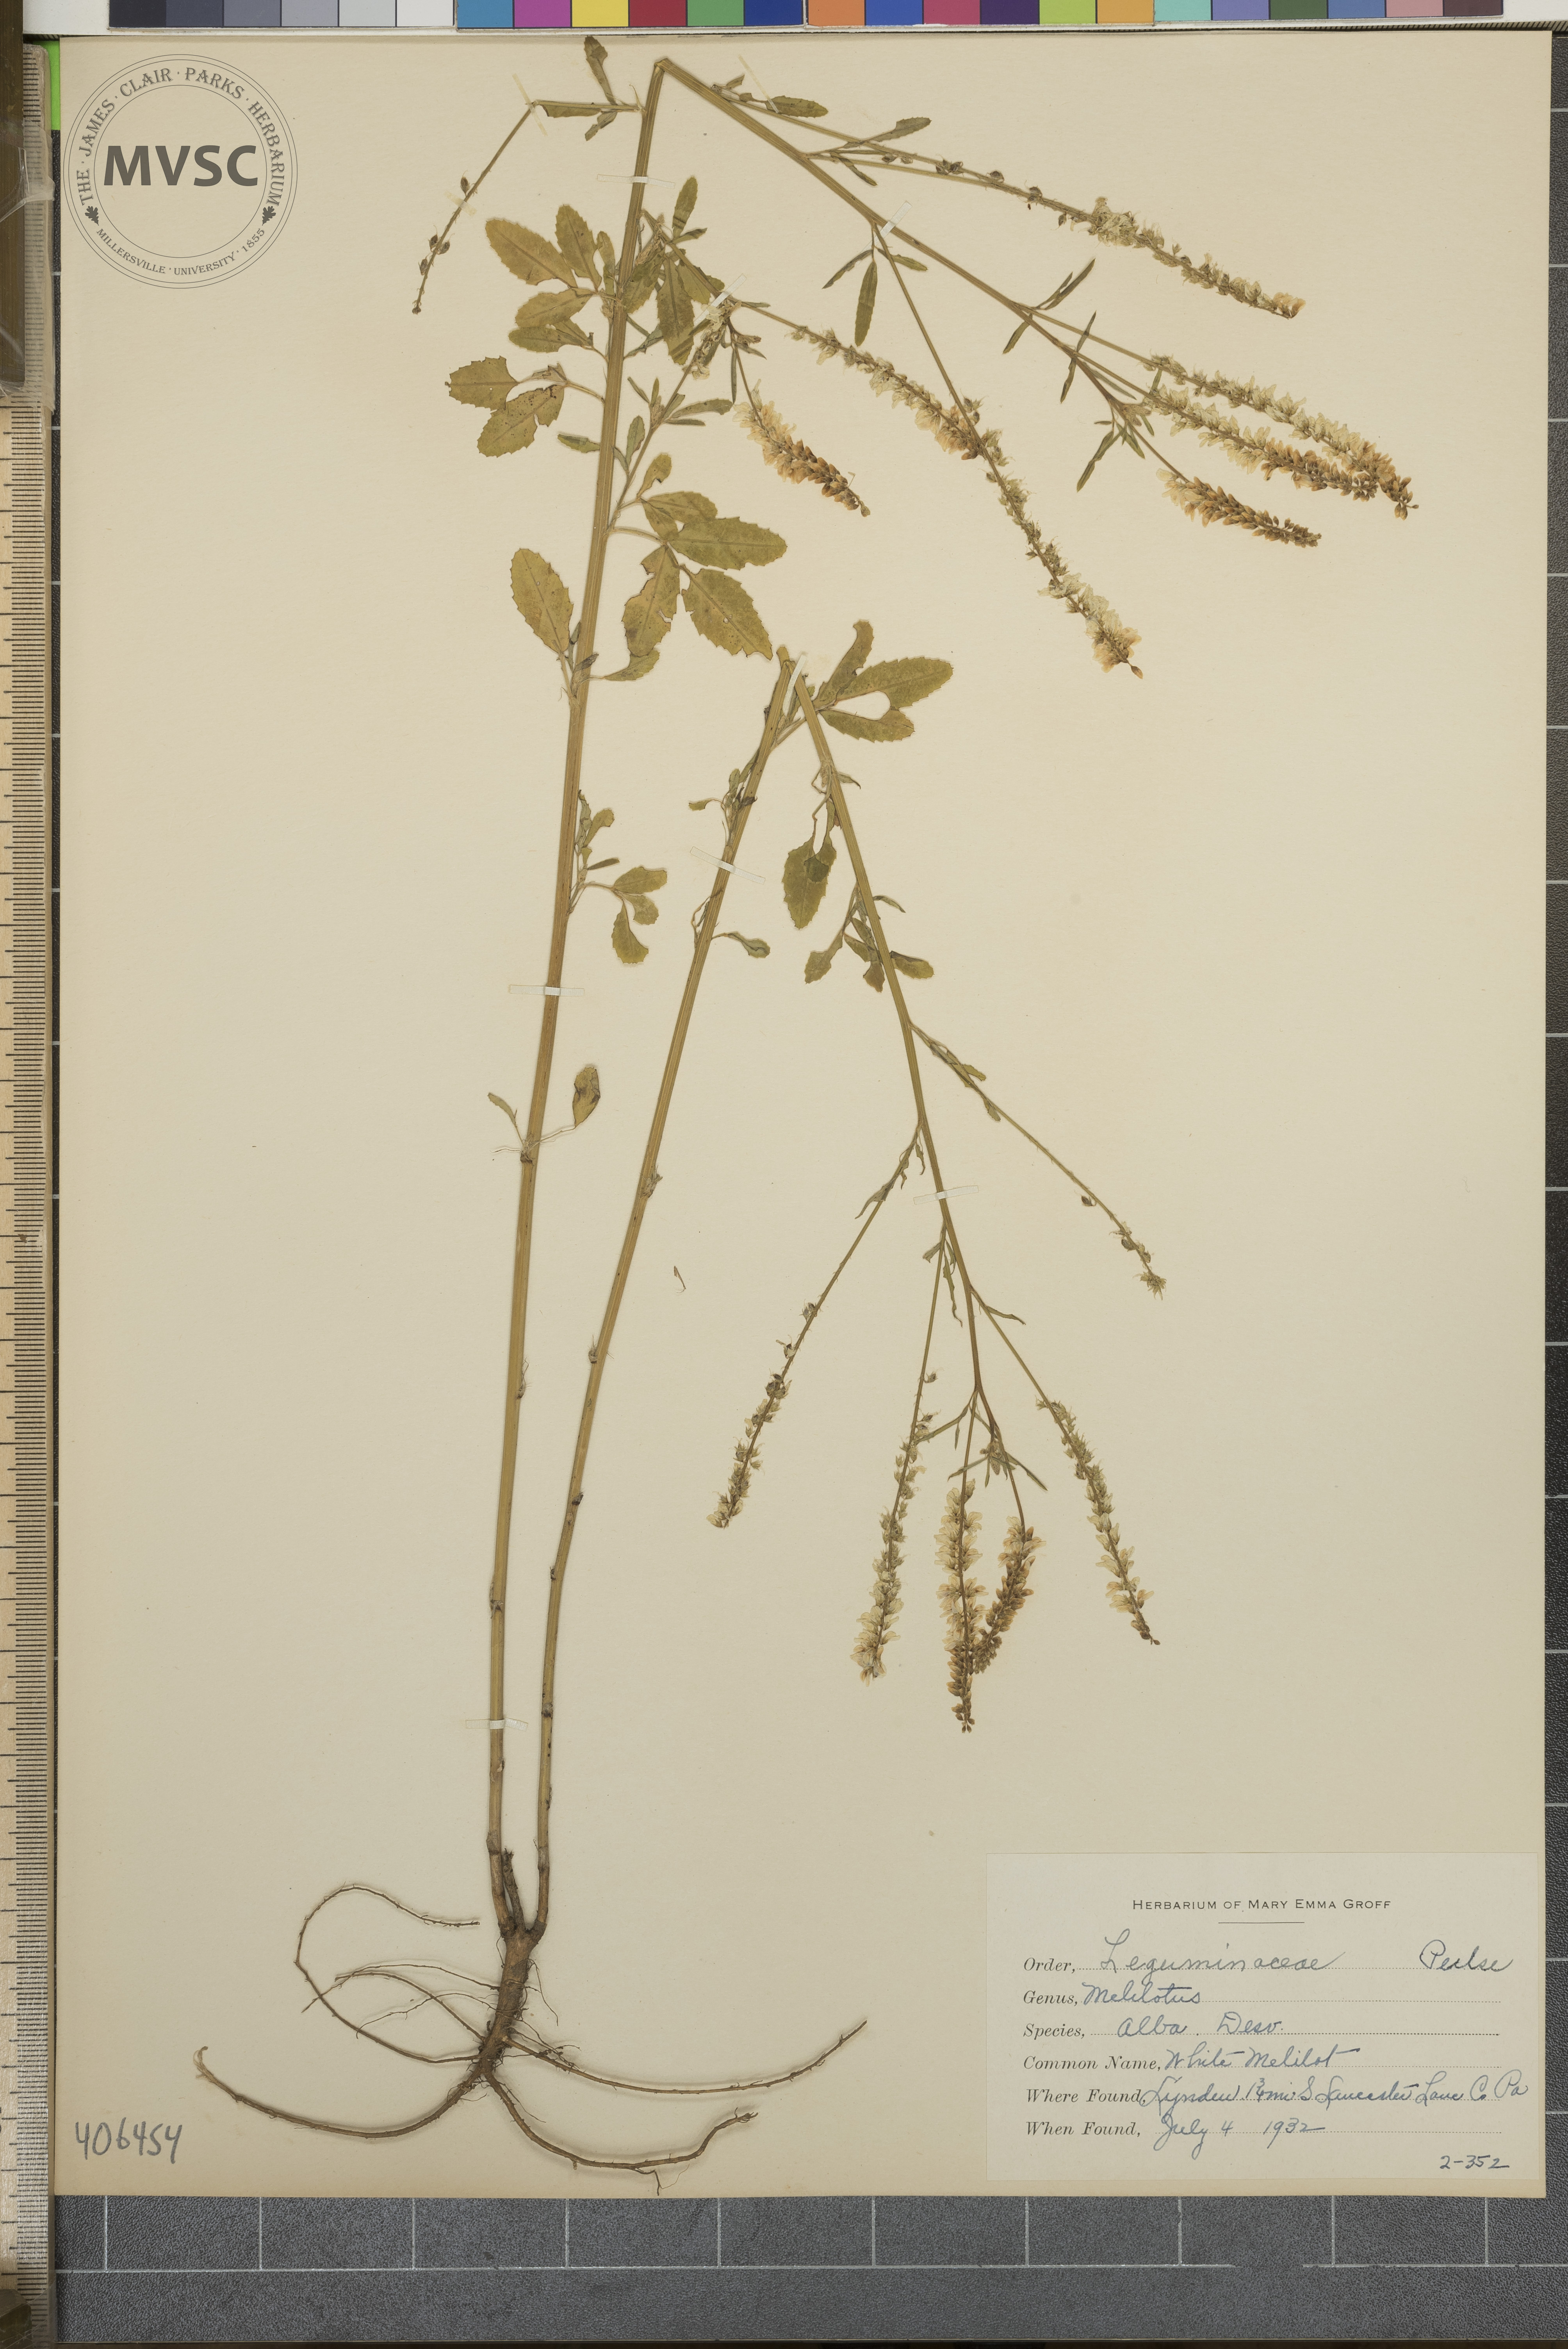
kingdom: Plantae
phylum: Tracheophyta
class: Magnoliopsida
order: Fabales
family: Fabaceae
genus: Melilotus
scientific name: Melilotus officinalis
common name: White Melilot
